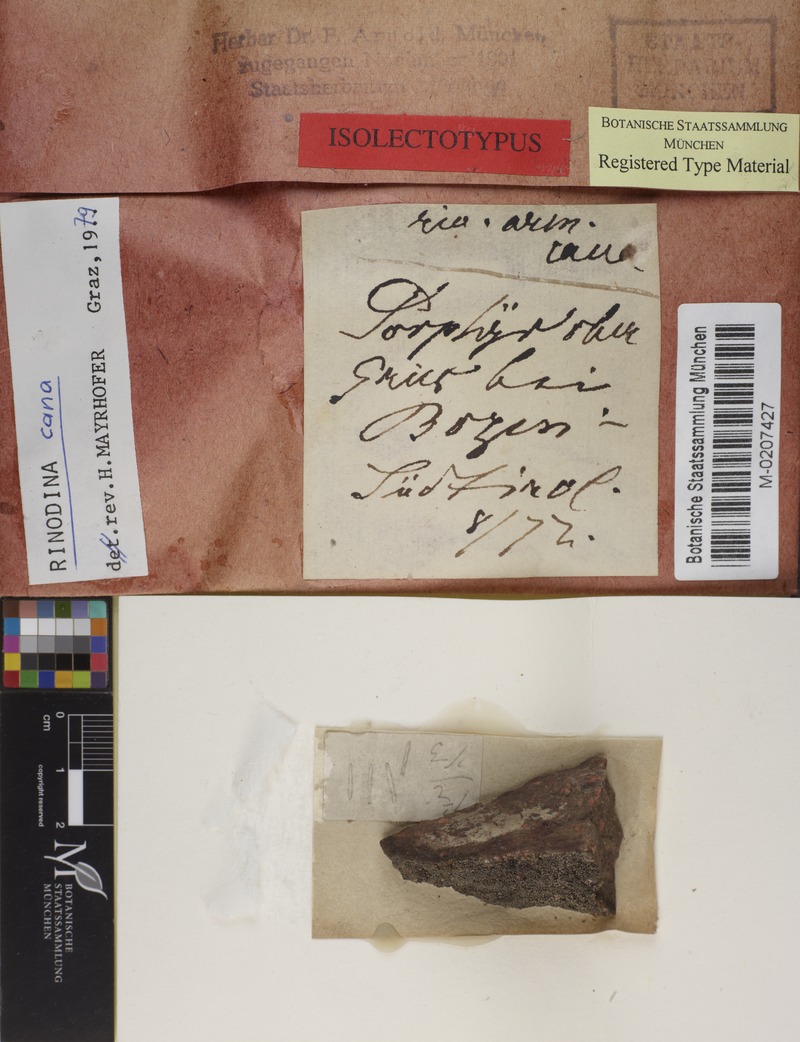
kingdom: Fungi
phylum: Ascomycota
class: Lecanoromycetes
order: Caliciales
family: Physciaceae
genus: Rinodina
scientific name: Rinodina cana
